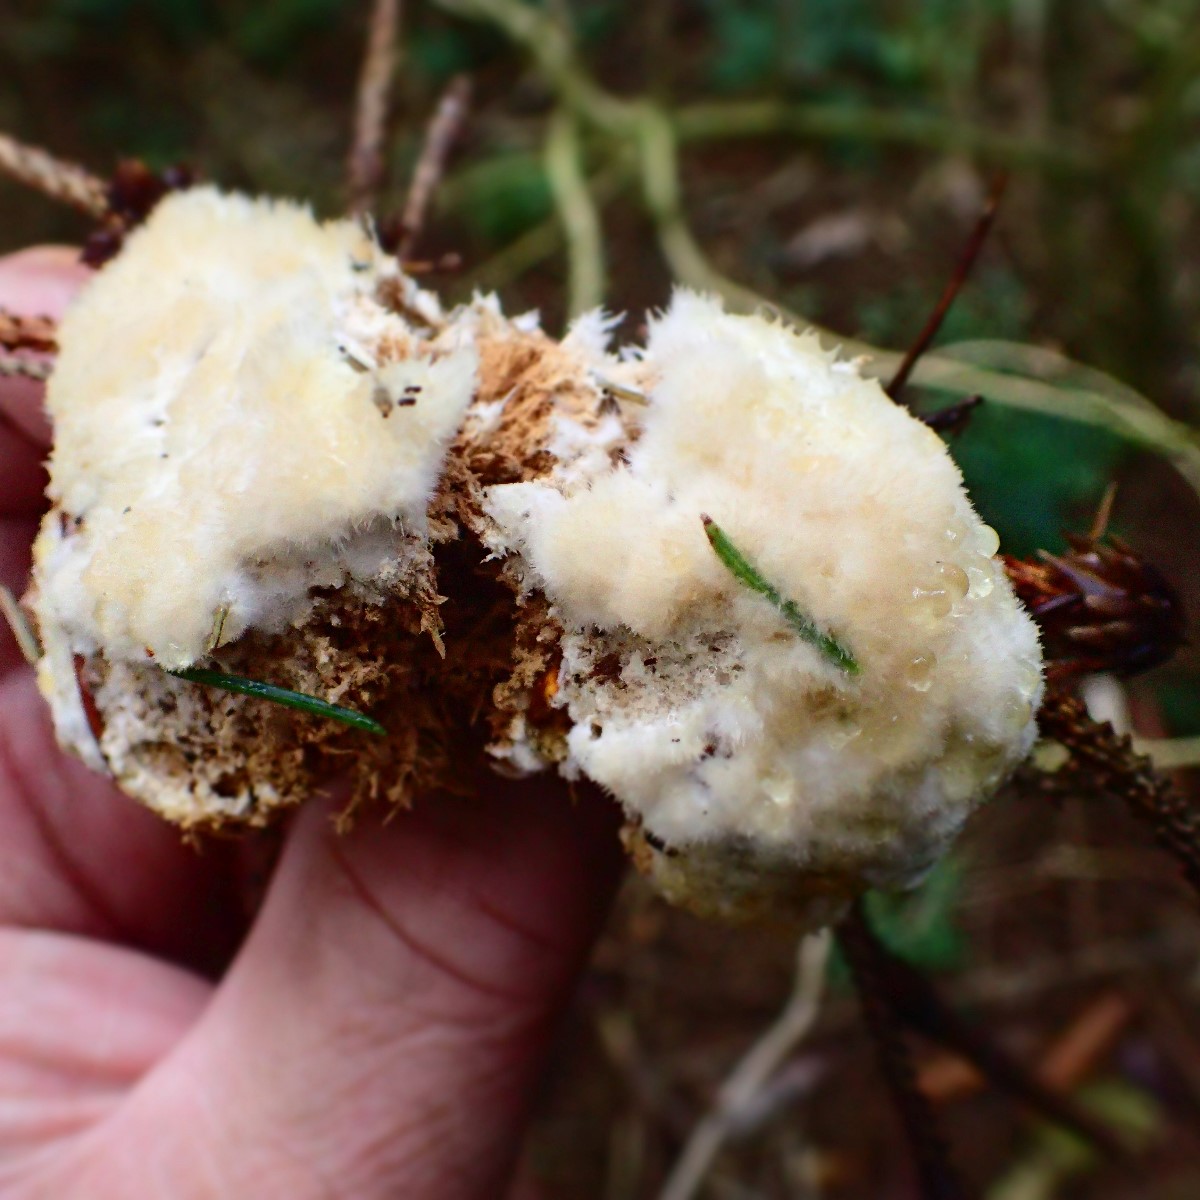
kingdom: Fungi
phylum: Basidiomycota
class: Agaricomycetes
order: Polyporales
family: Dacryobolaceae
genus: Postia
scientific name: Postia ptychogaster
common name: støvende kødporesvamp
